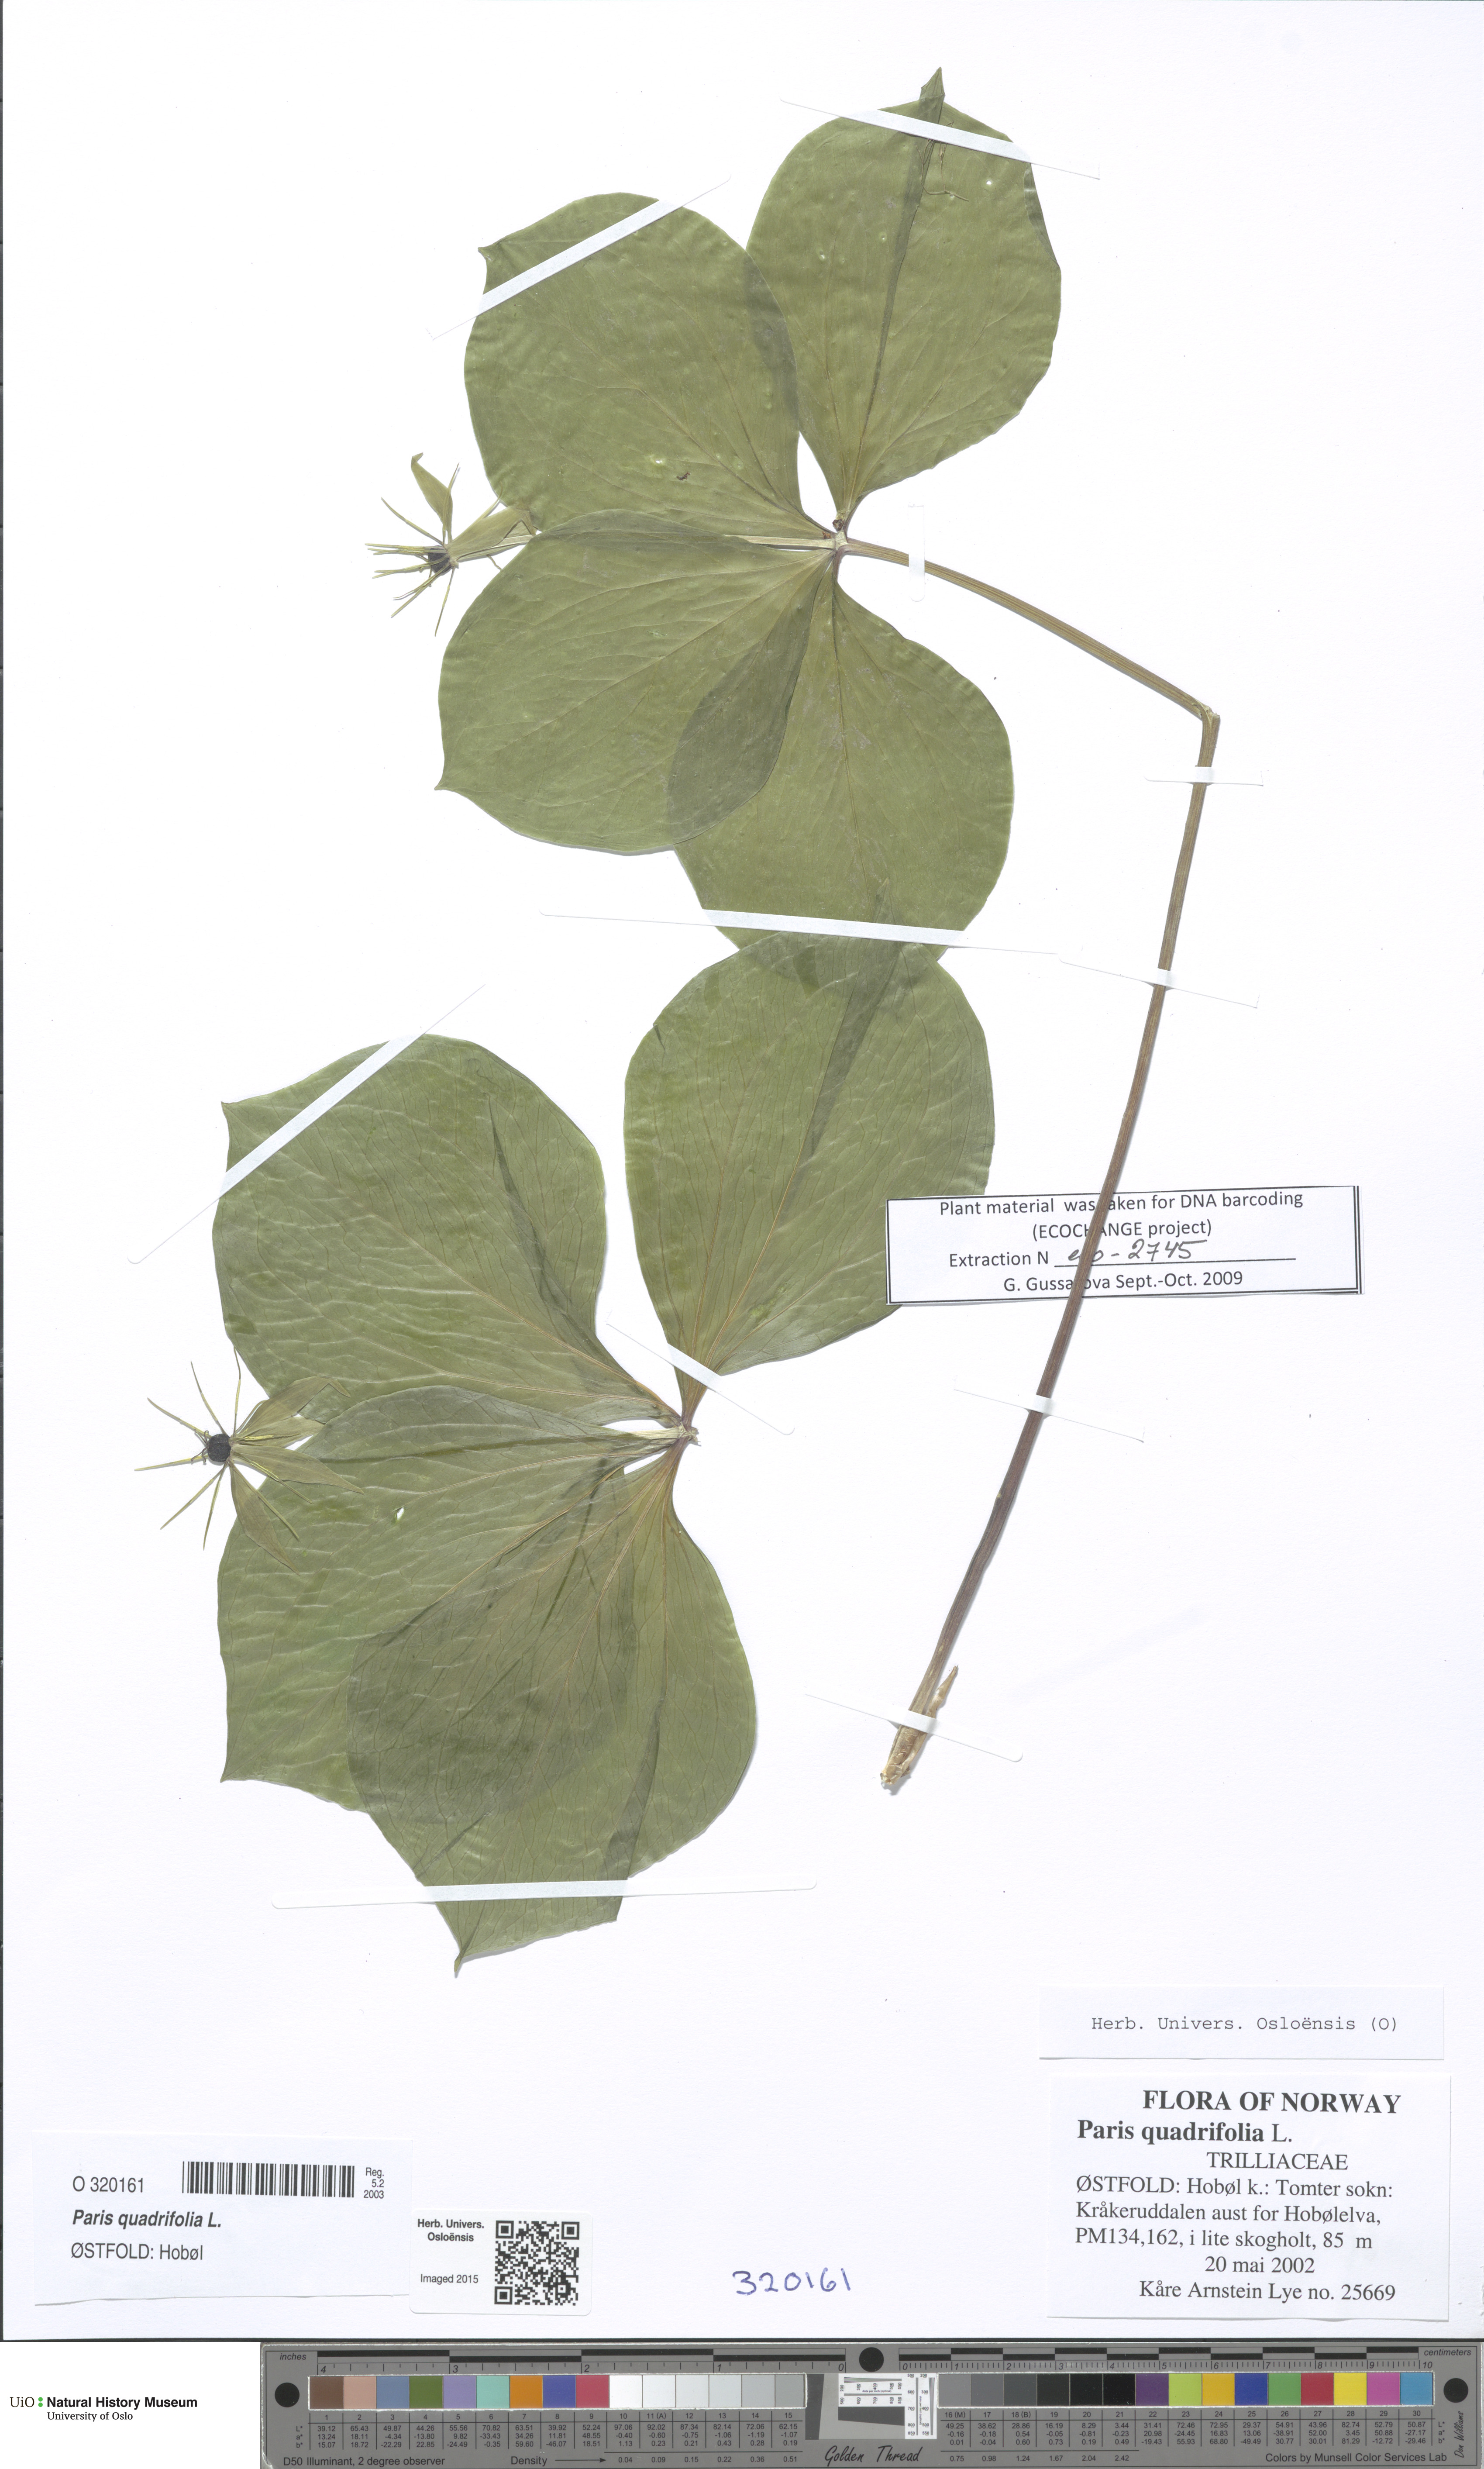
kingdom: Plantae
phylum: Tracheophyta
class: Liliopsida
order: Liliales
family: Melanthiaceae
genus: Paris
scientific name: Paris quadrifolia
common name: Herb-paris
